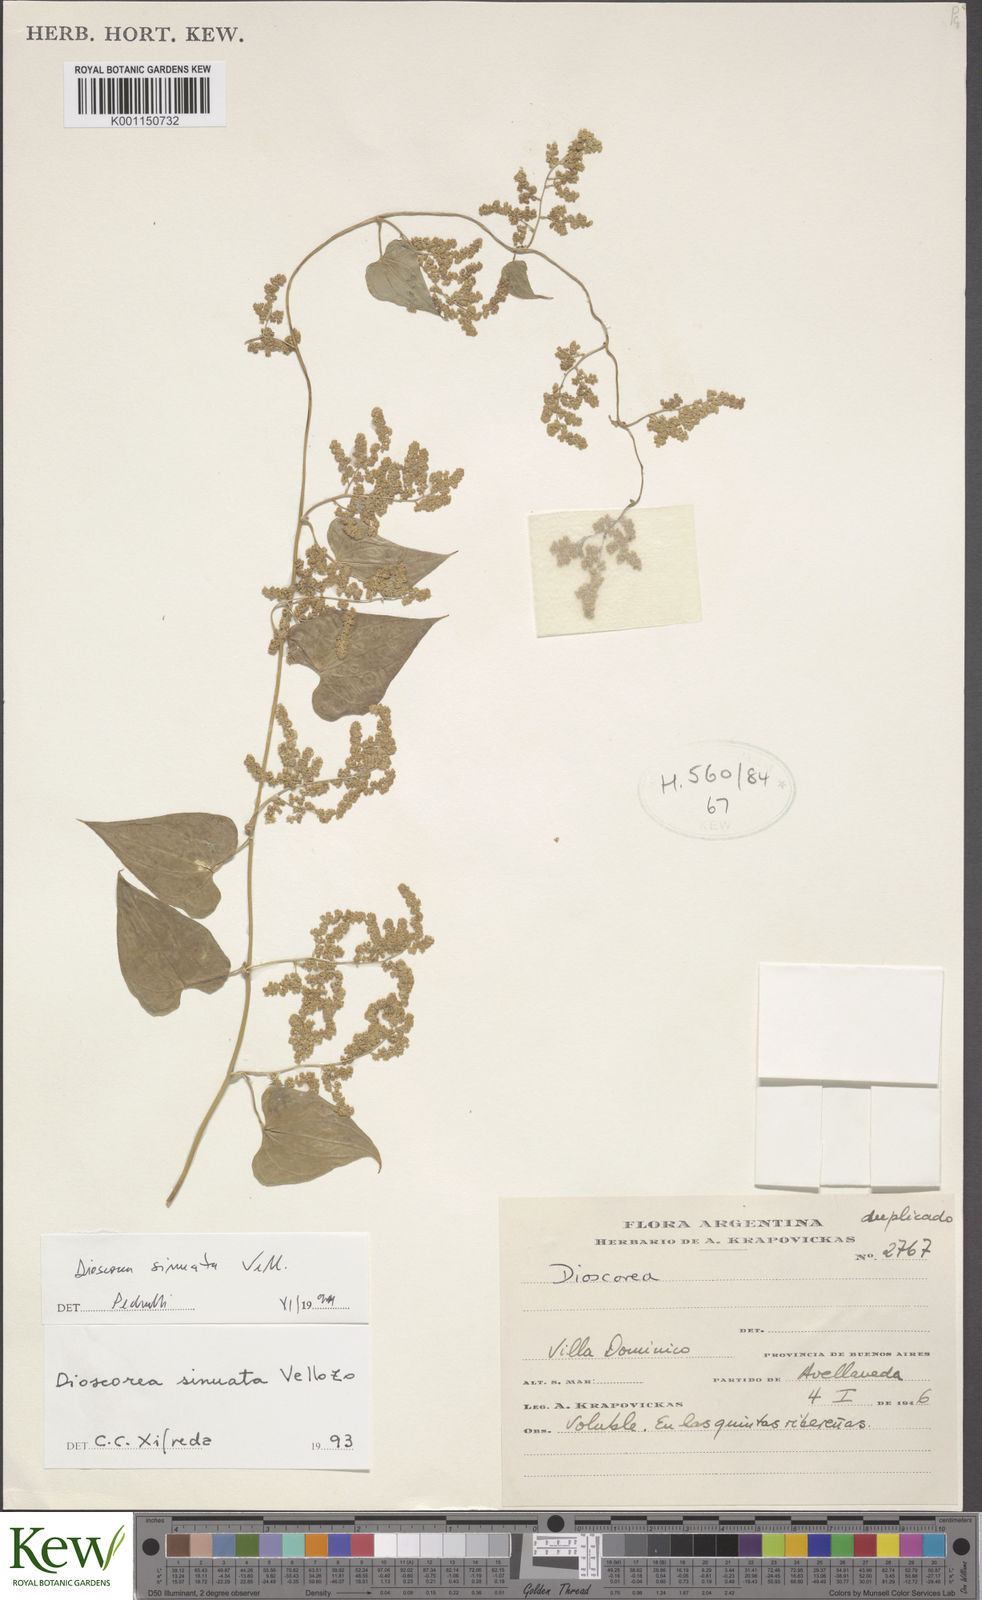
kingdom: Plantae
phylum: Tracheophyta
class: Liliopsida
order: Dioscoreales
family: Dioscoreaceae
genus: Dioscorea
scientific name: Dioscorea sinuata
